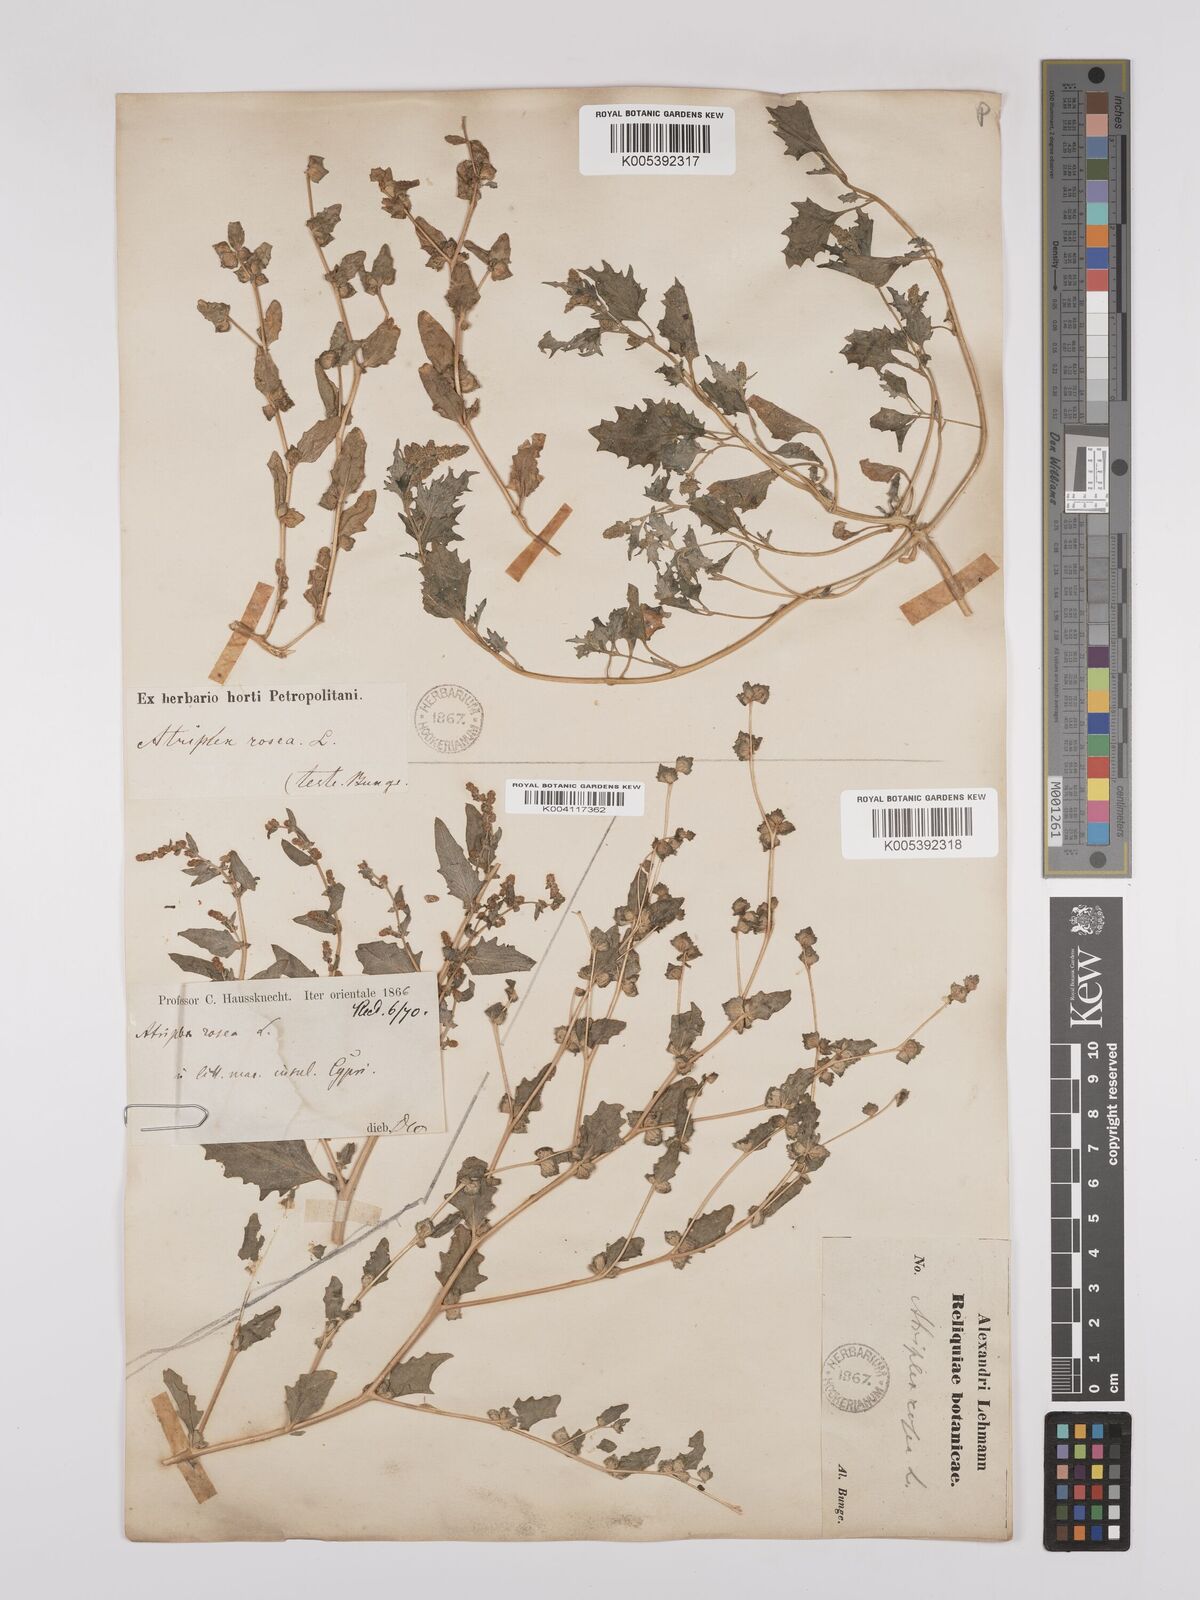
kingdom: Plantae
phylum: Tracheophyta
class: Magnoliopsida
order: Caryophyllales
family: Amaranthaceae
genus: Atriplex
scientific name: Atriplex
